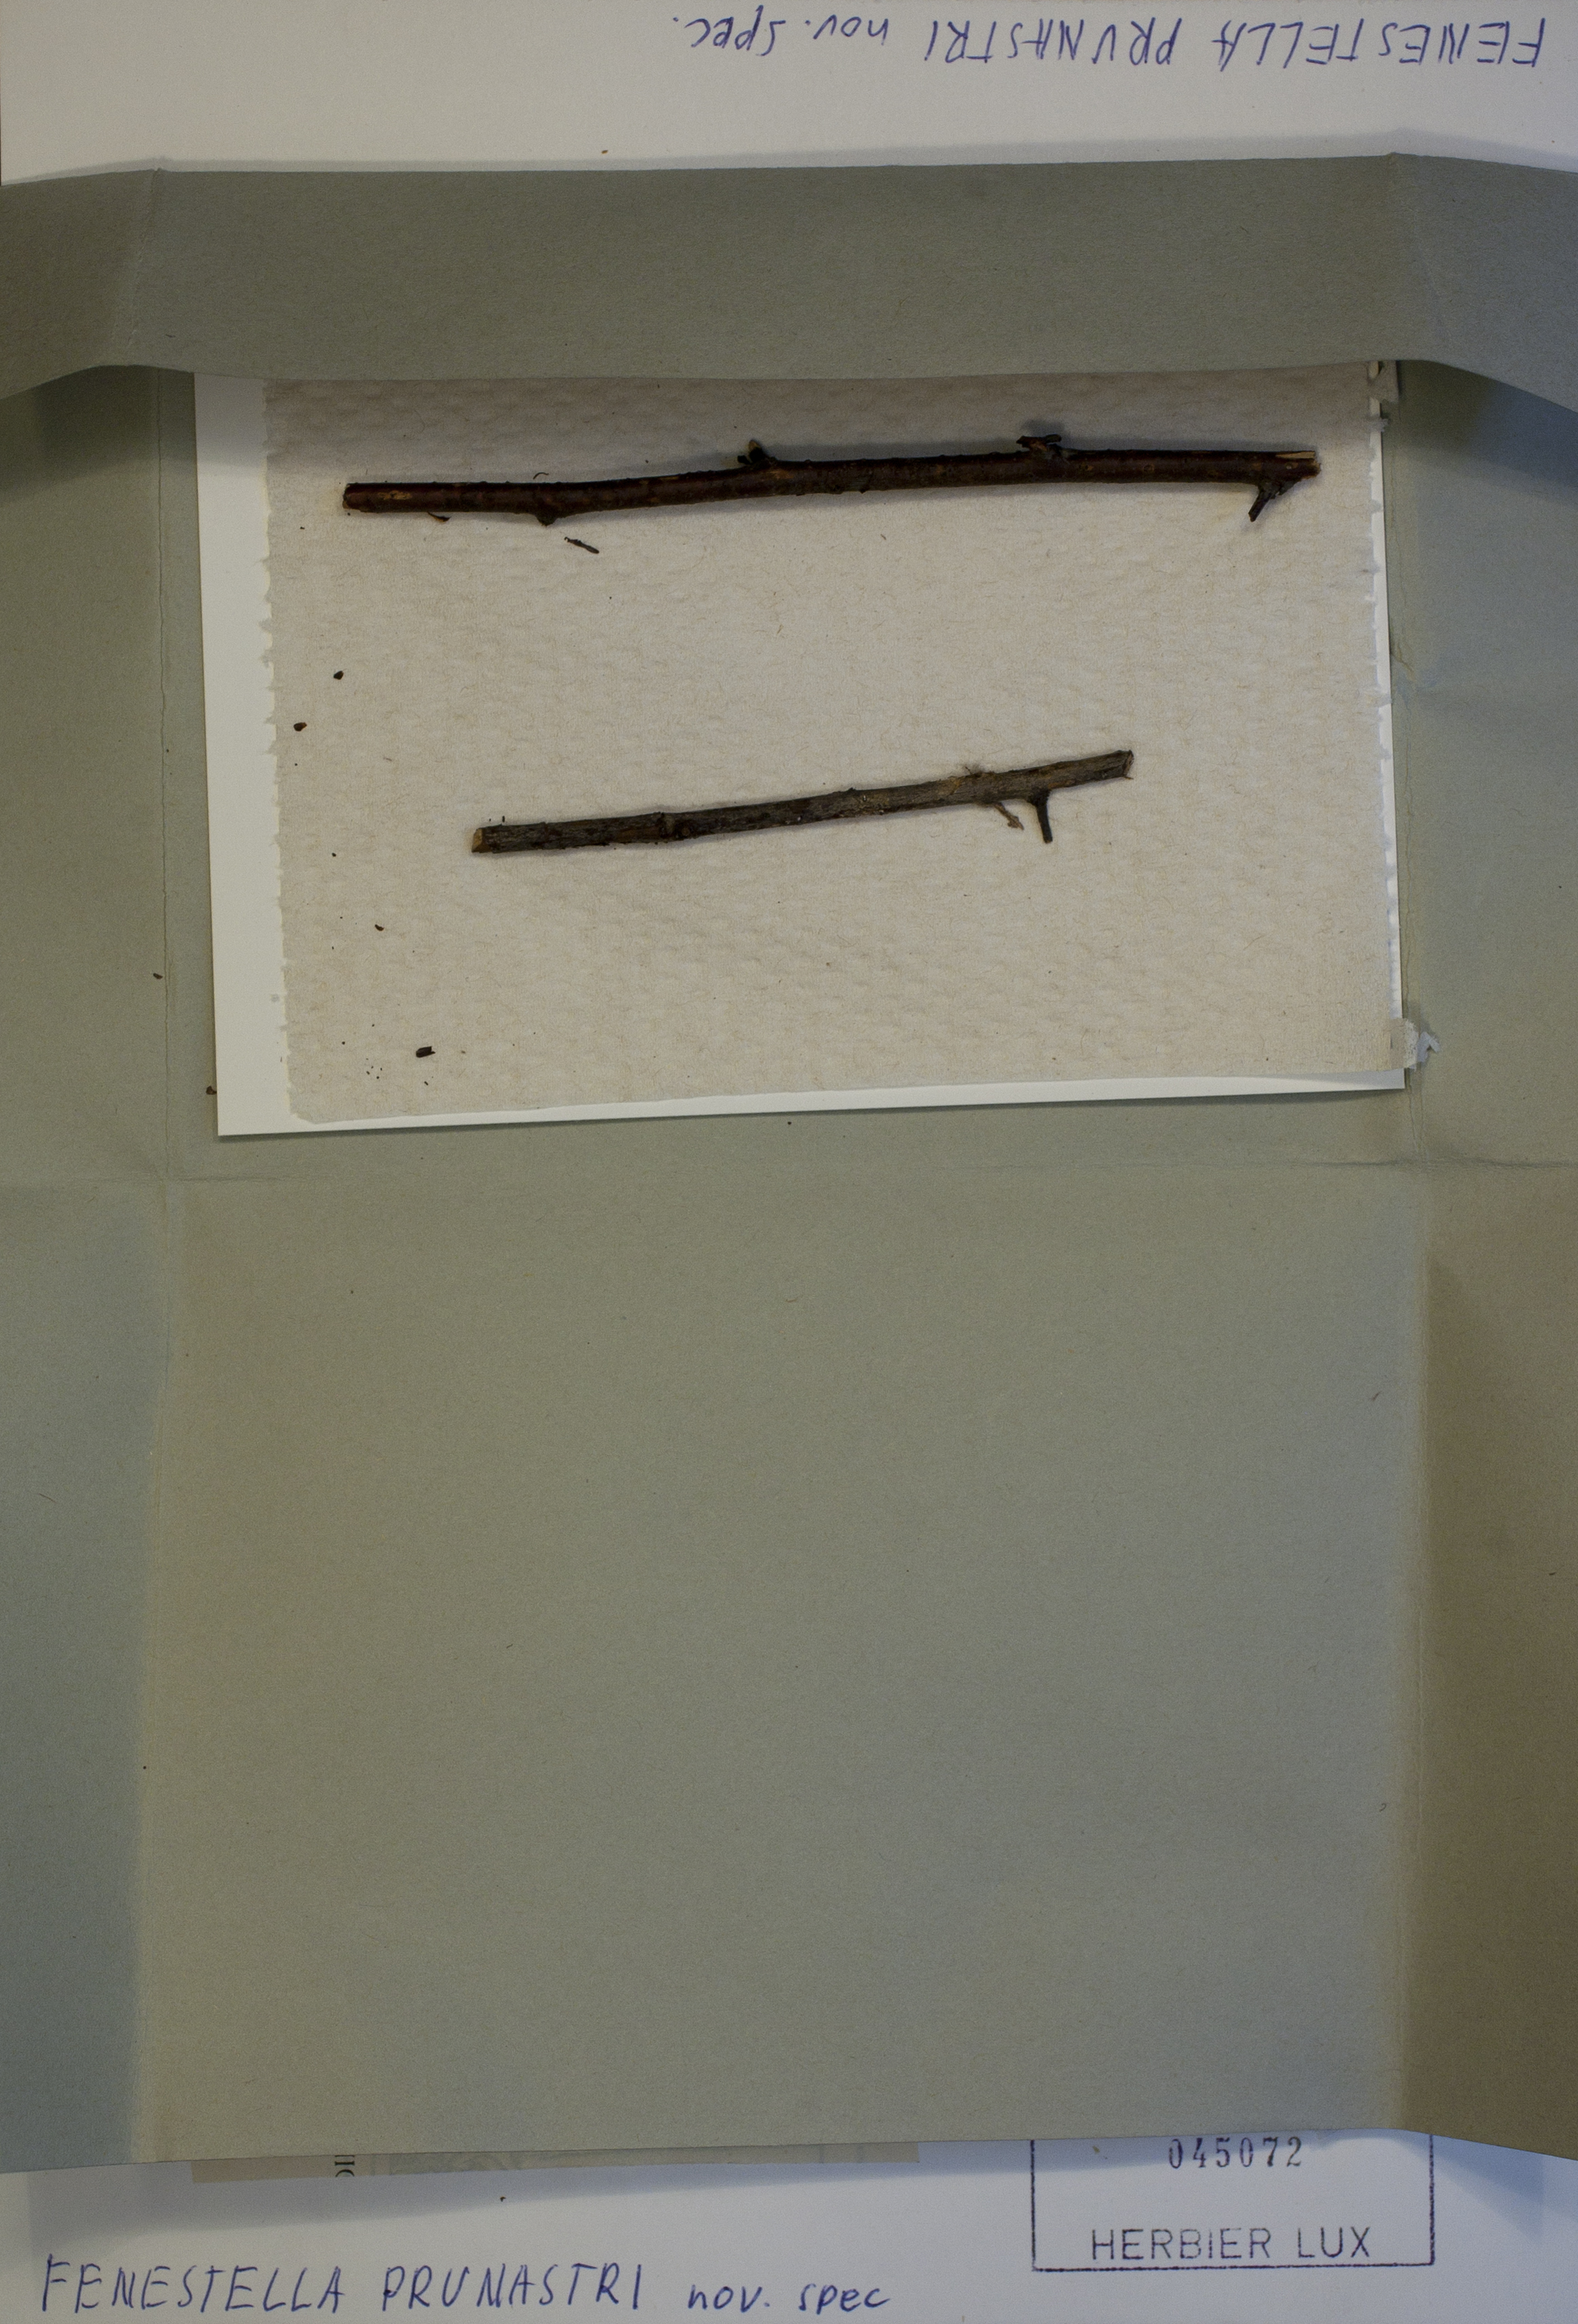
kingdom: Fungi
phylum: Ascomycota
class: Dothideomycetes
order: Pleosporales
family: Fenestellaceae
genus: Fenestella
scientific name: Fenestella prunastri
